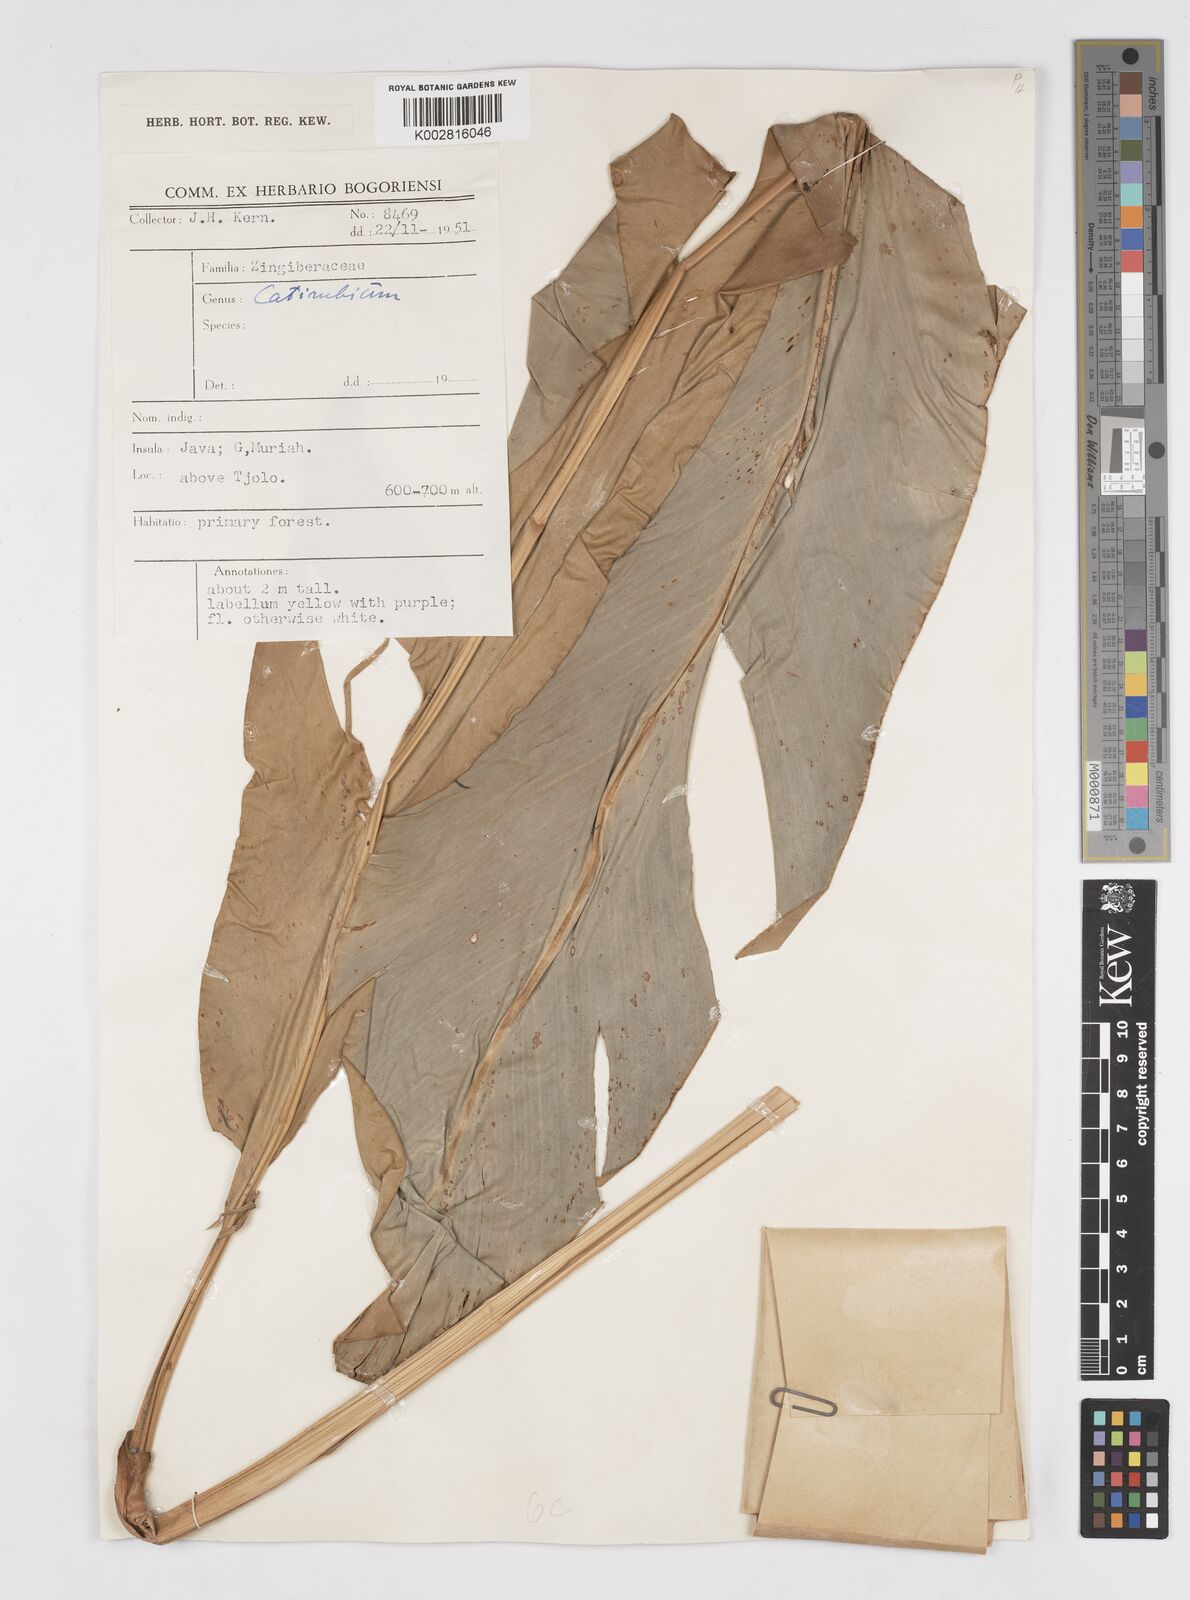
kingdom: Plantae
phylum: Tracheophyta
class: Liliopsida
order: Zingiberales
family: Zingiberaceae
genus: Alpinia
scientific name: Alpinia
